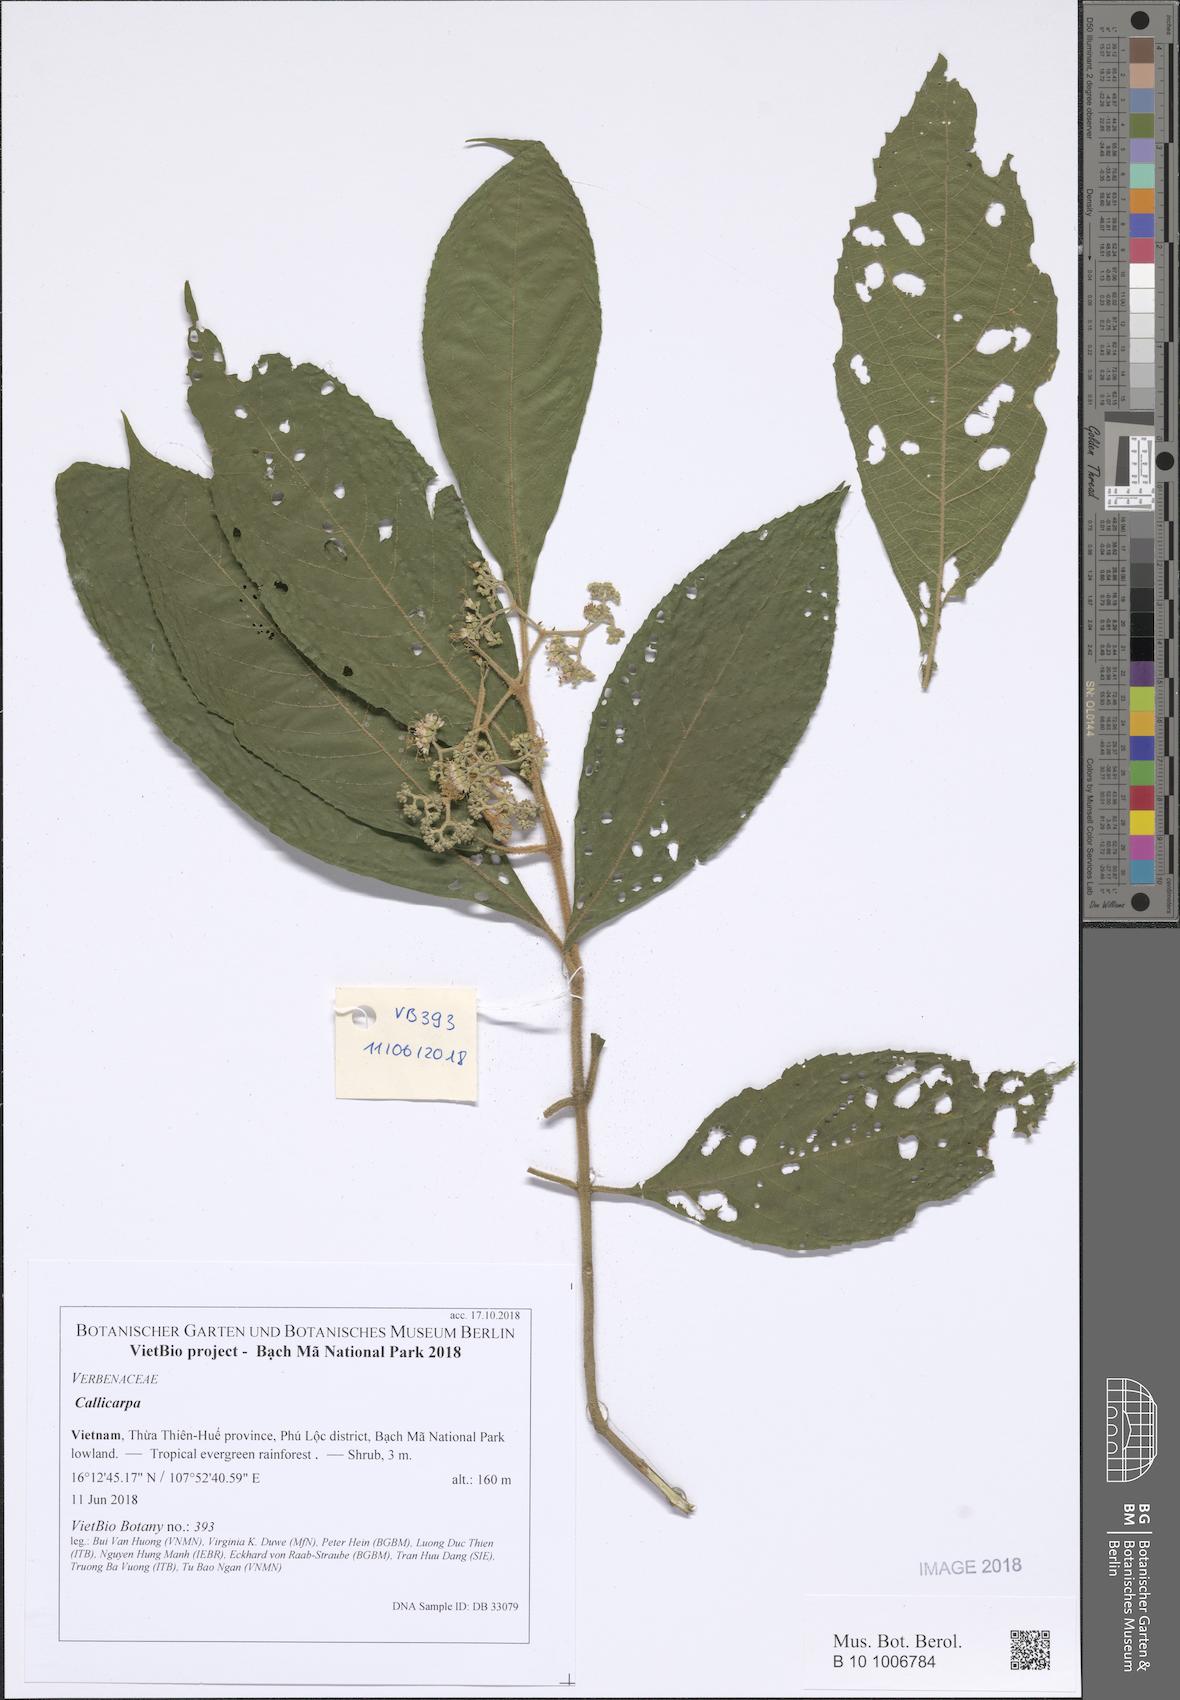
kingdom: Plantae
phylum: Tracheophyta
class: Magnoliopsida
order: Lamiales
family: Lamiaceae
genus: Callicarpa
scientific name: Callicarpa
